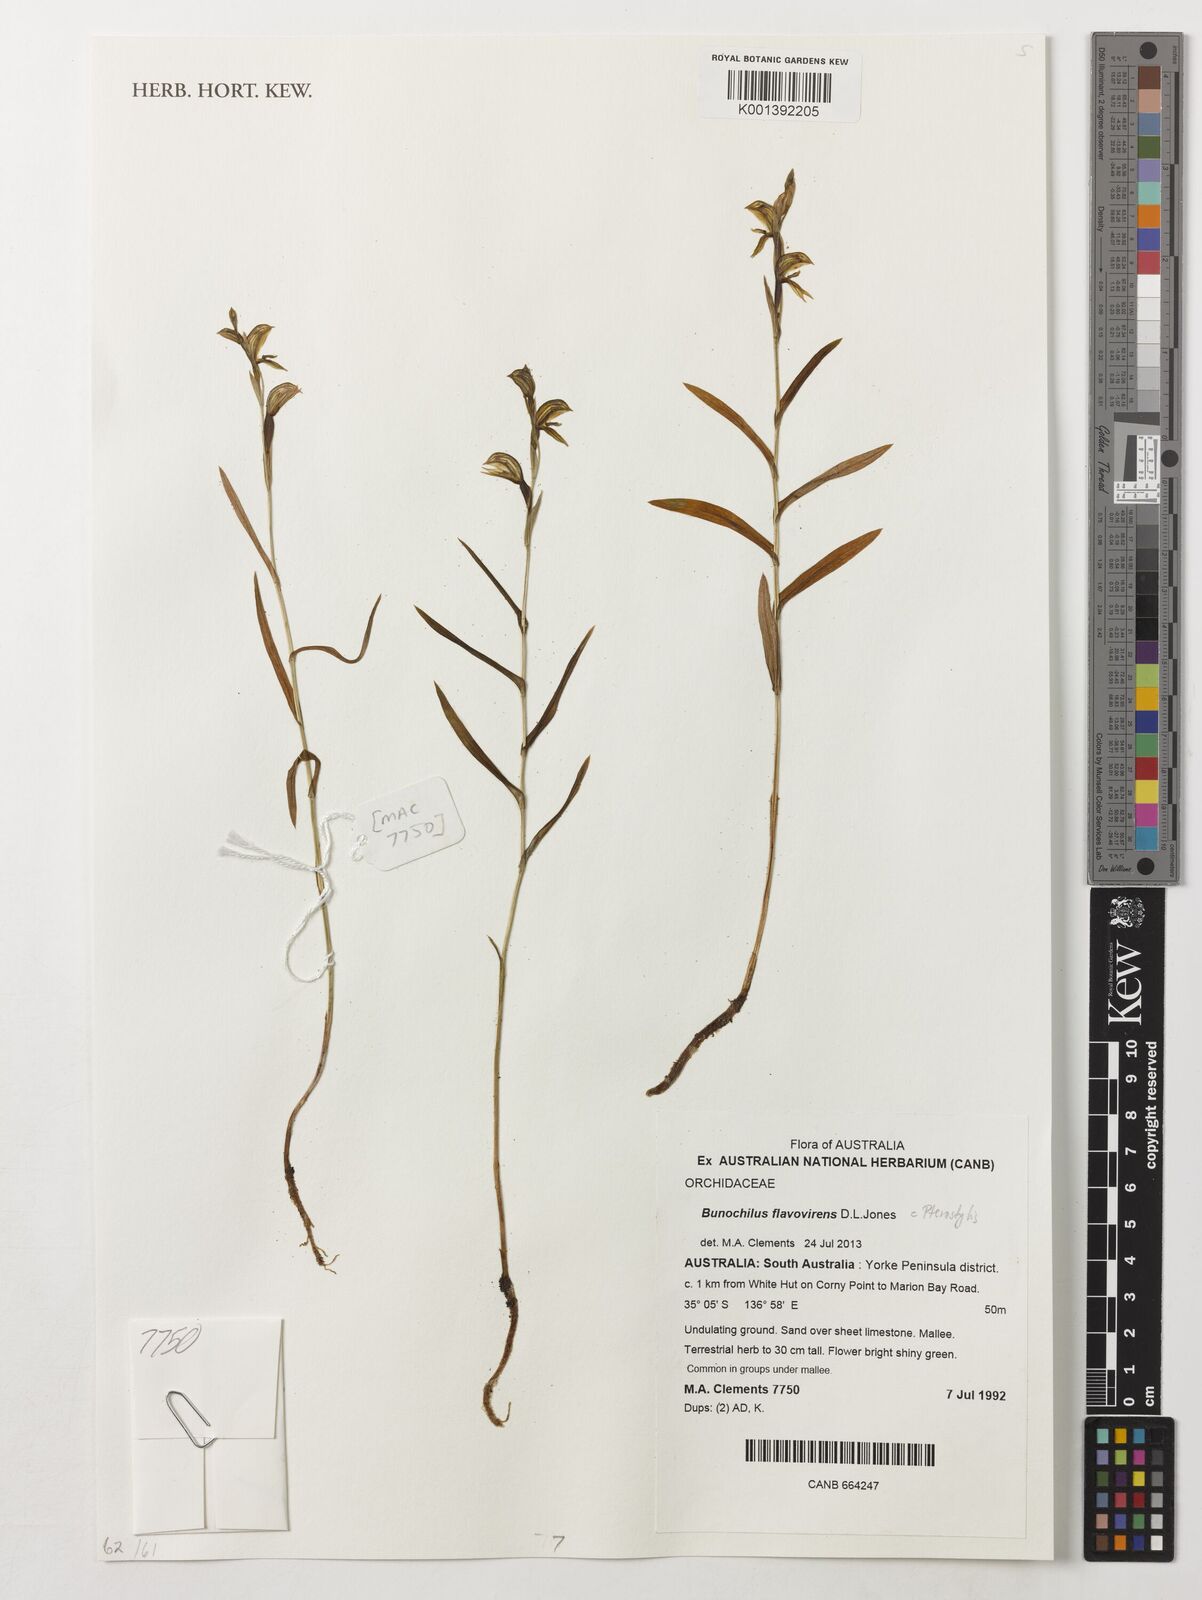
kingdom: Plantae
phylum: Tracheophyta
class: Liliopsida
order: Asparagales
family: Orchidaceae
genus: Pterostylis
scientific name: Pterostylis flavovirens
